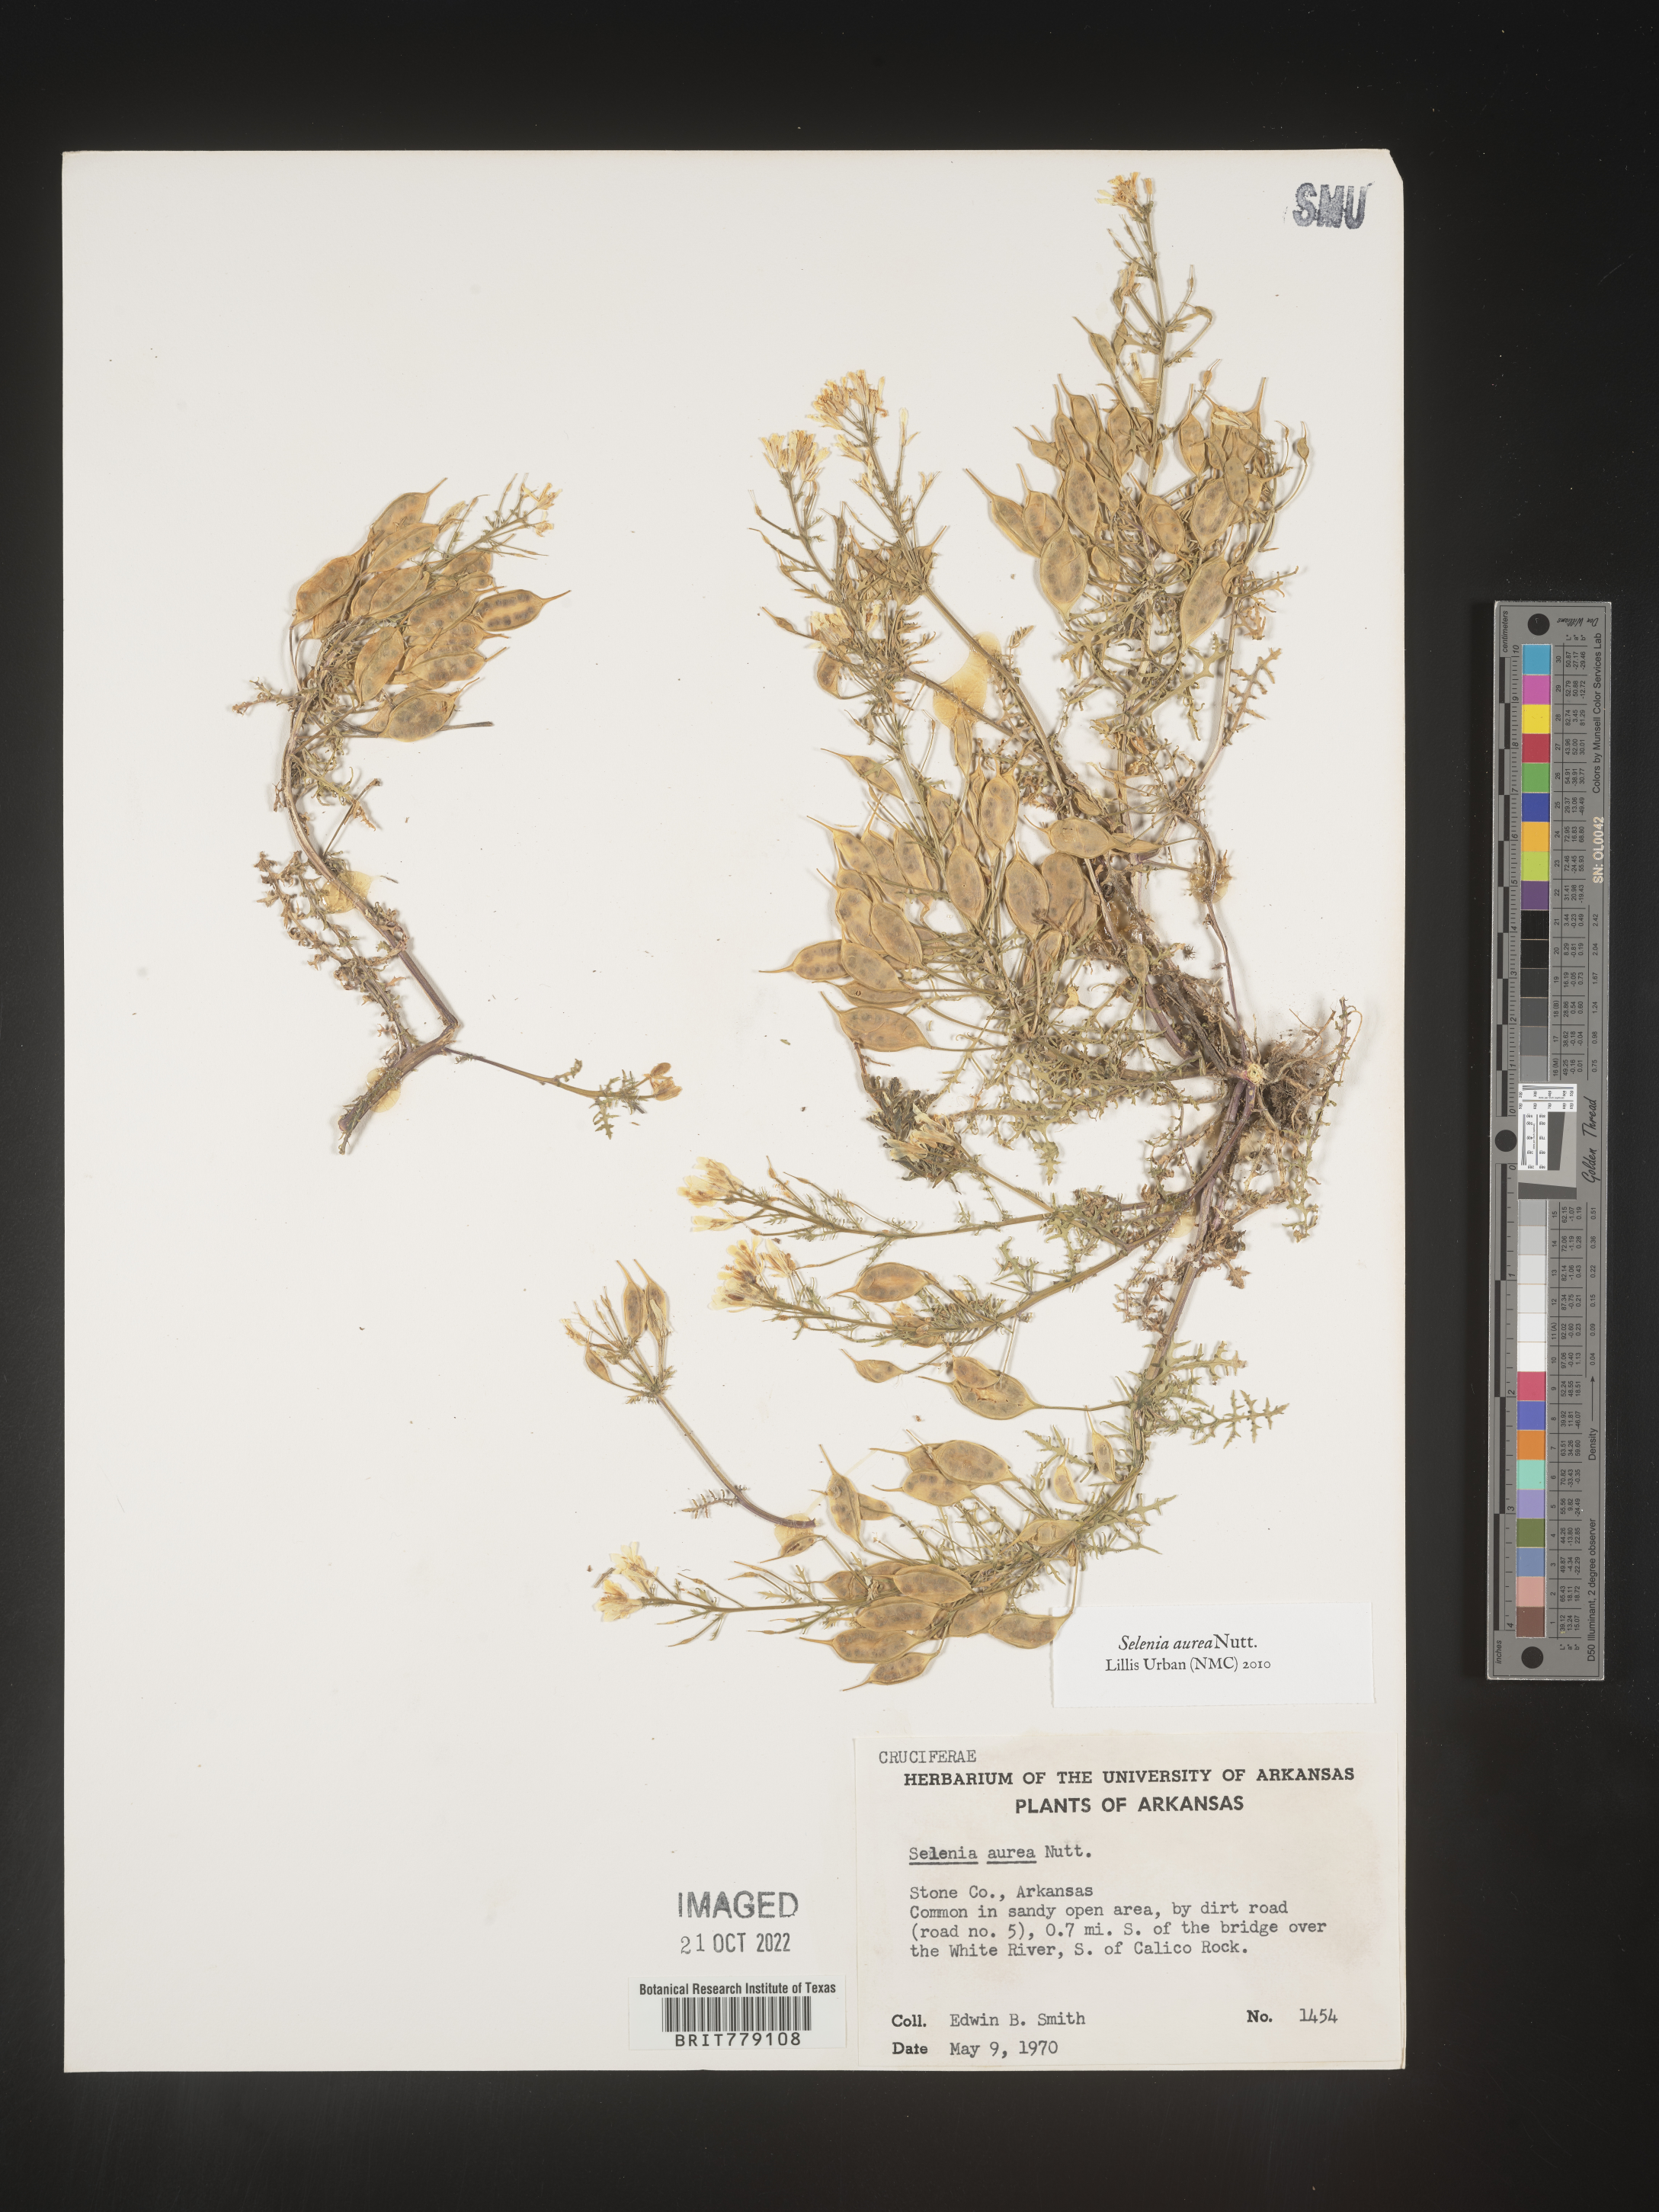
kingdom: Plantae
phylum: Tracheophyta
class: Magnoliopsida
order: Brassicales
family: Brassicaceae
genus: Selenia
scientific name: Selenia
